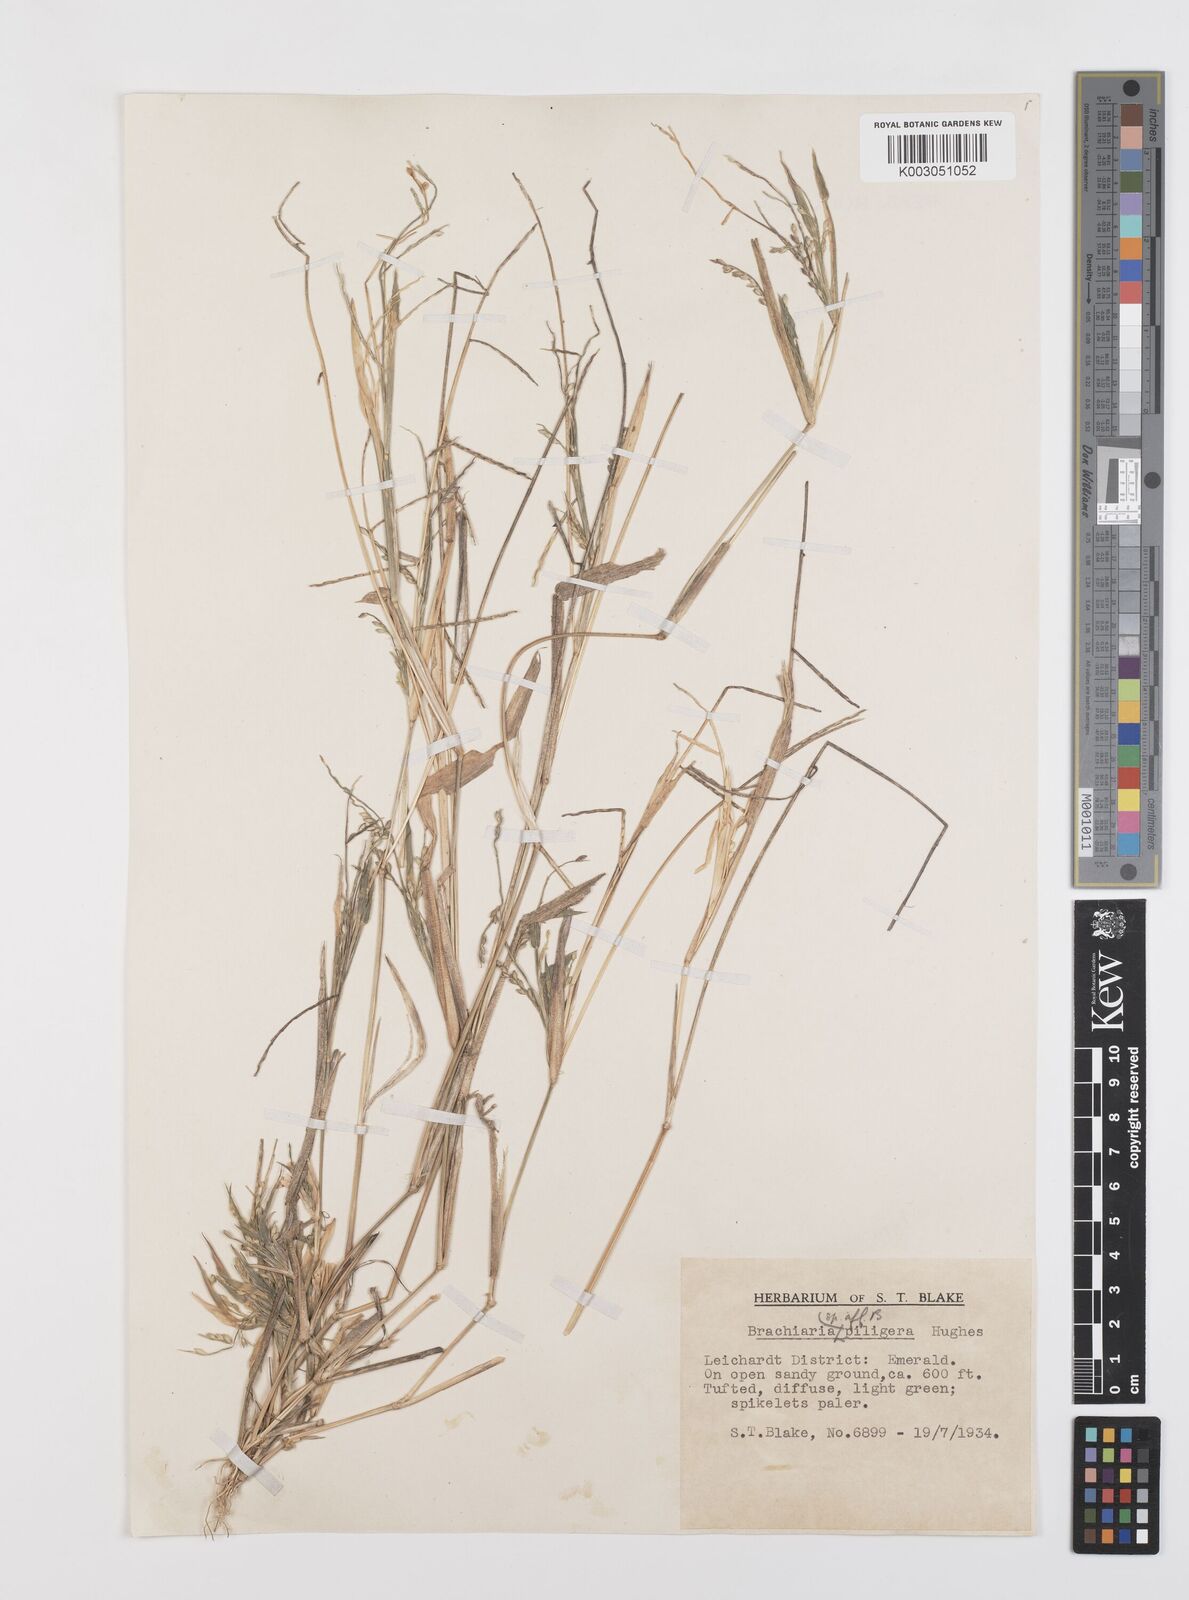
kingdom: Plantae
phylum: Tracheophyta
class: Liliopsida
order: Poales
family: Poaceae
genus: Urochloa
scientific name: Urochloa piligera
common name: Wattle signalgrass
